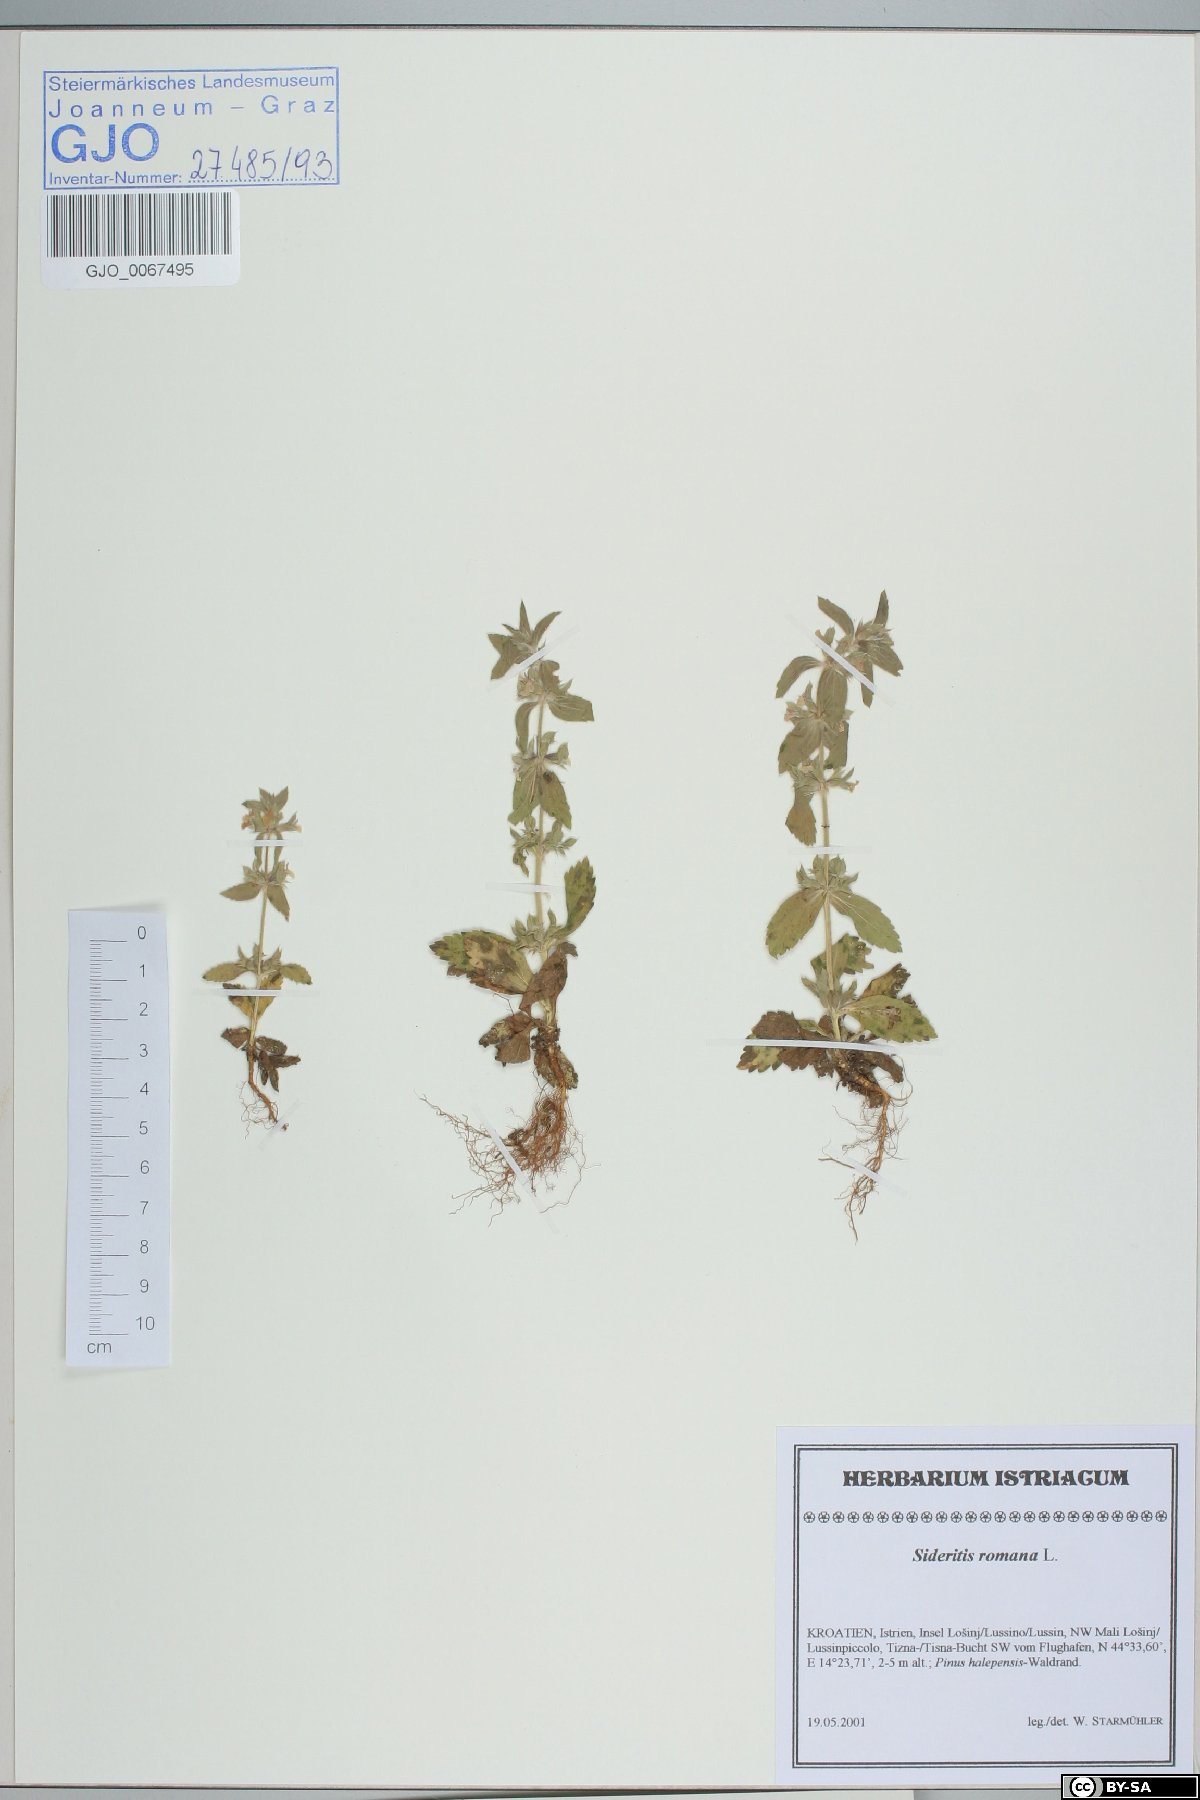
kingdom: Plantae
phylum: Tracheophyta
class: Magnoliopsida
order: Lamiales
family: Lamiaceae
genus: Sideritis
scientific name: Sideritis romana
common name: Simplebeak ironwort
